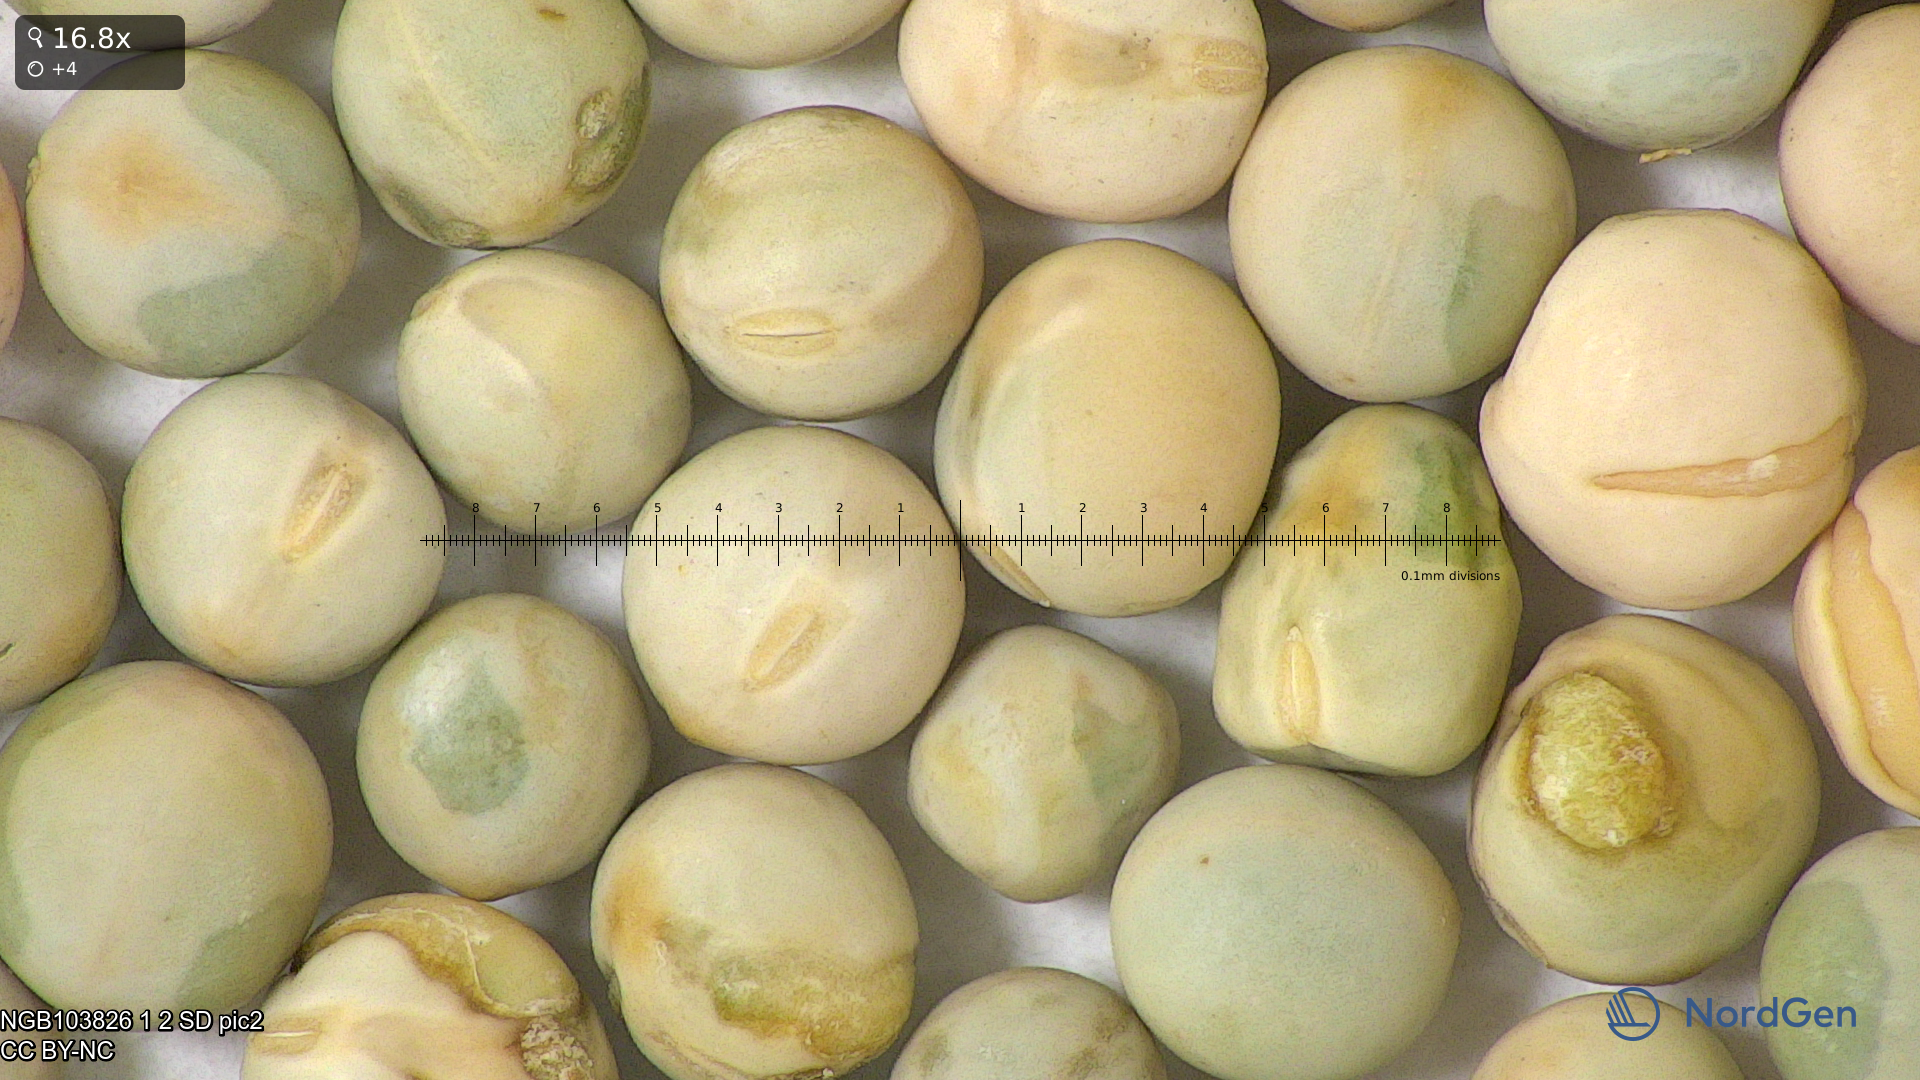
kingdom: Plantae
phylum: Tracheophyta
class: Magnoliopsida
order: Fabales
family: Fabaceae
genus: Lathyrus
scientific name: Lathyrus oleraceus
